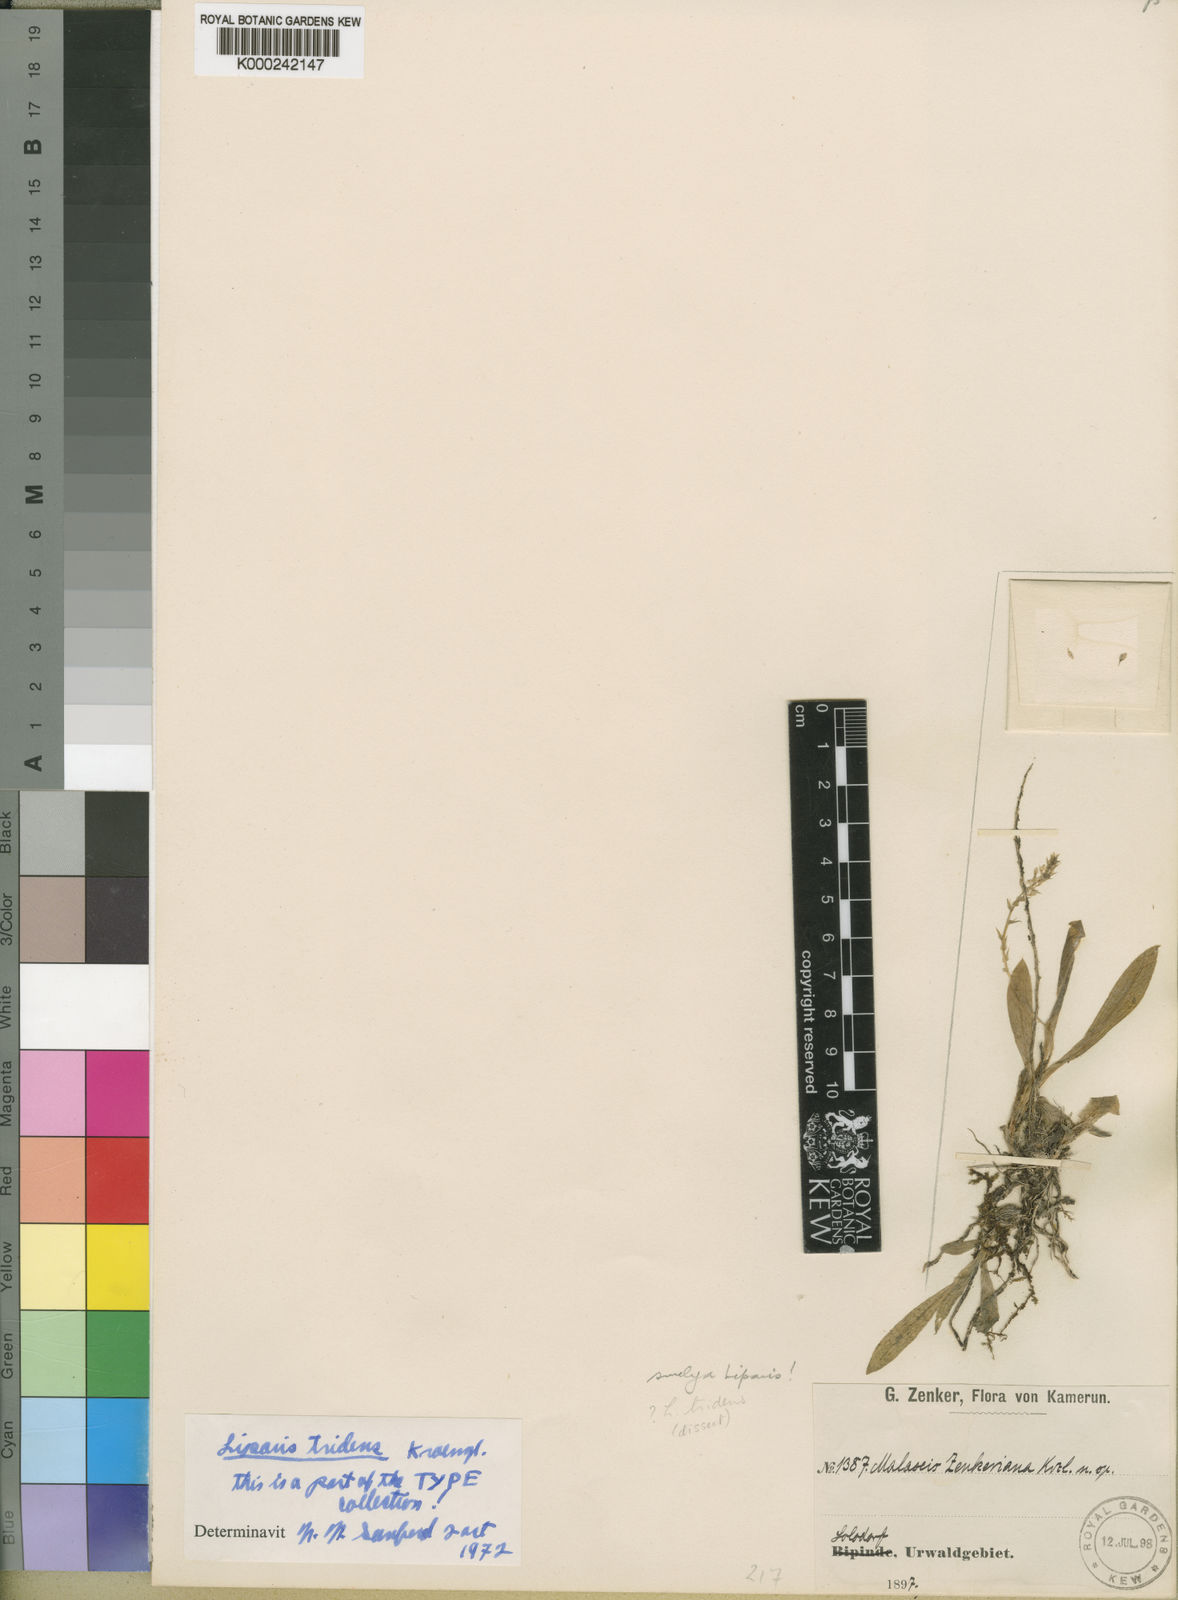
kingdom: Plantae
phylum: Tracheophyta
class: Liliopsida
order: Asparagales
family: Orchidaceae
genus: Liparis
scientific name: Liparis tridens
